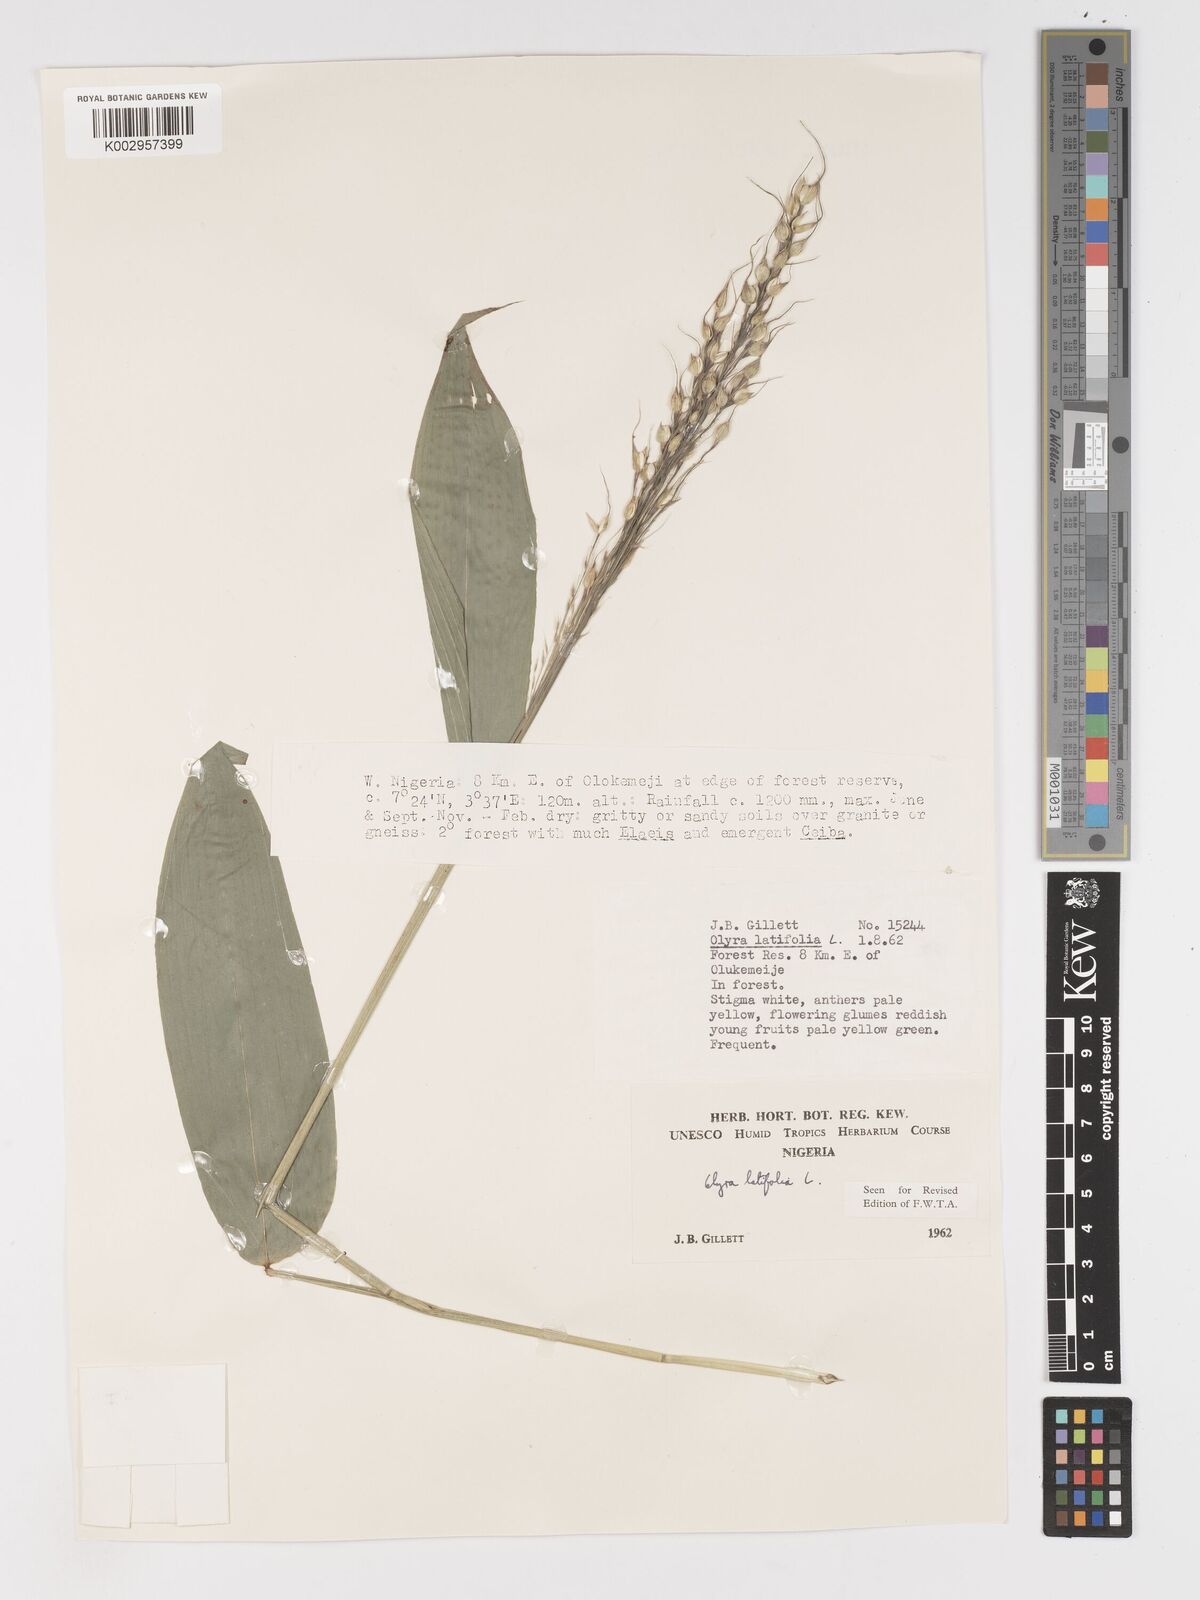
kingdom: Plantae
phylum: Tracheophyta
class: Liliopsida
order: Poales
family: Poaceae
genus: Olyra
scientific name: Olyra latifolia
